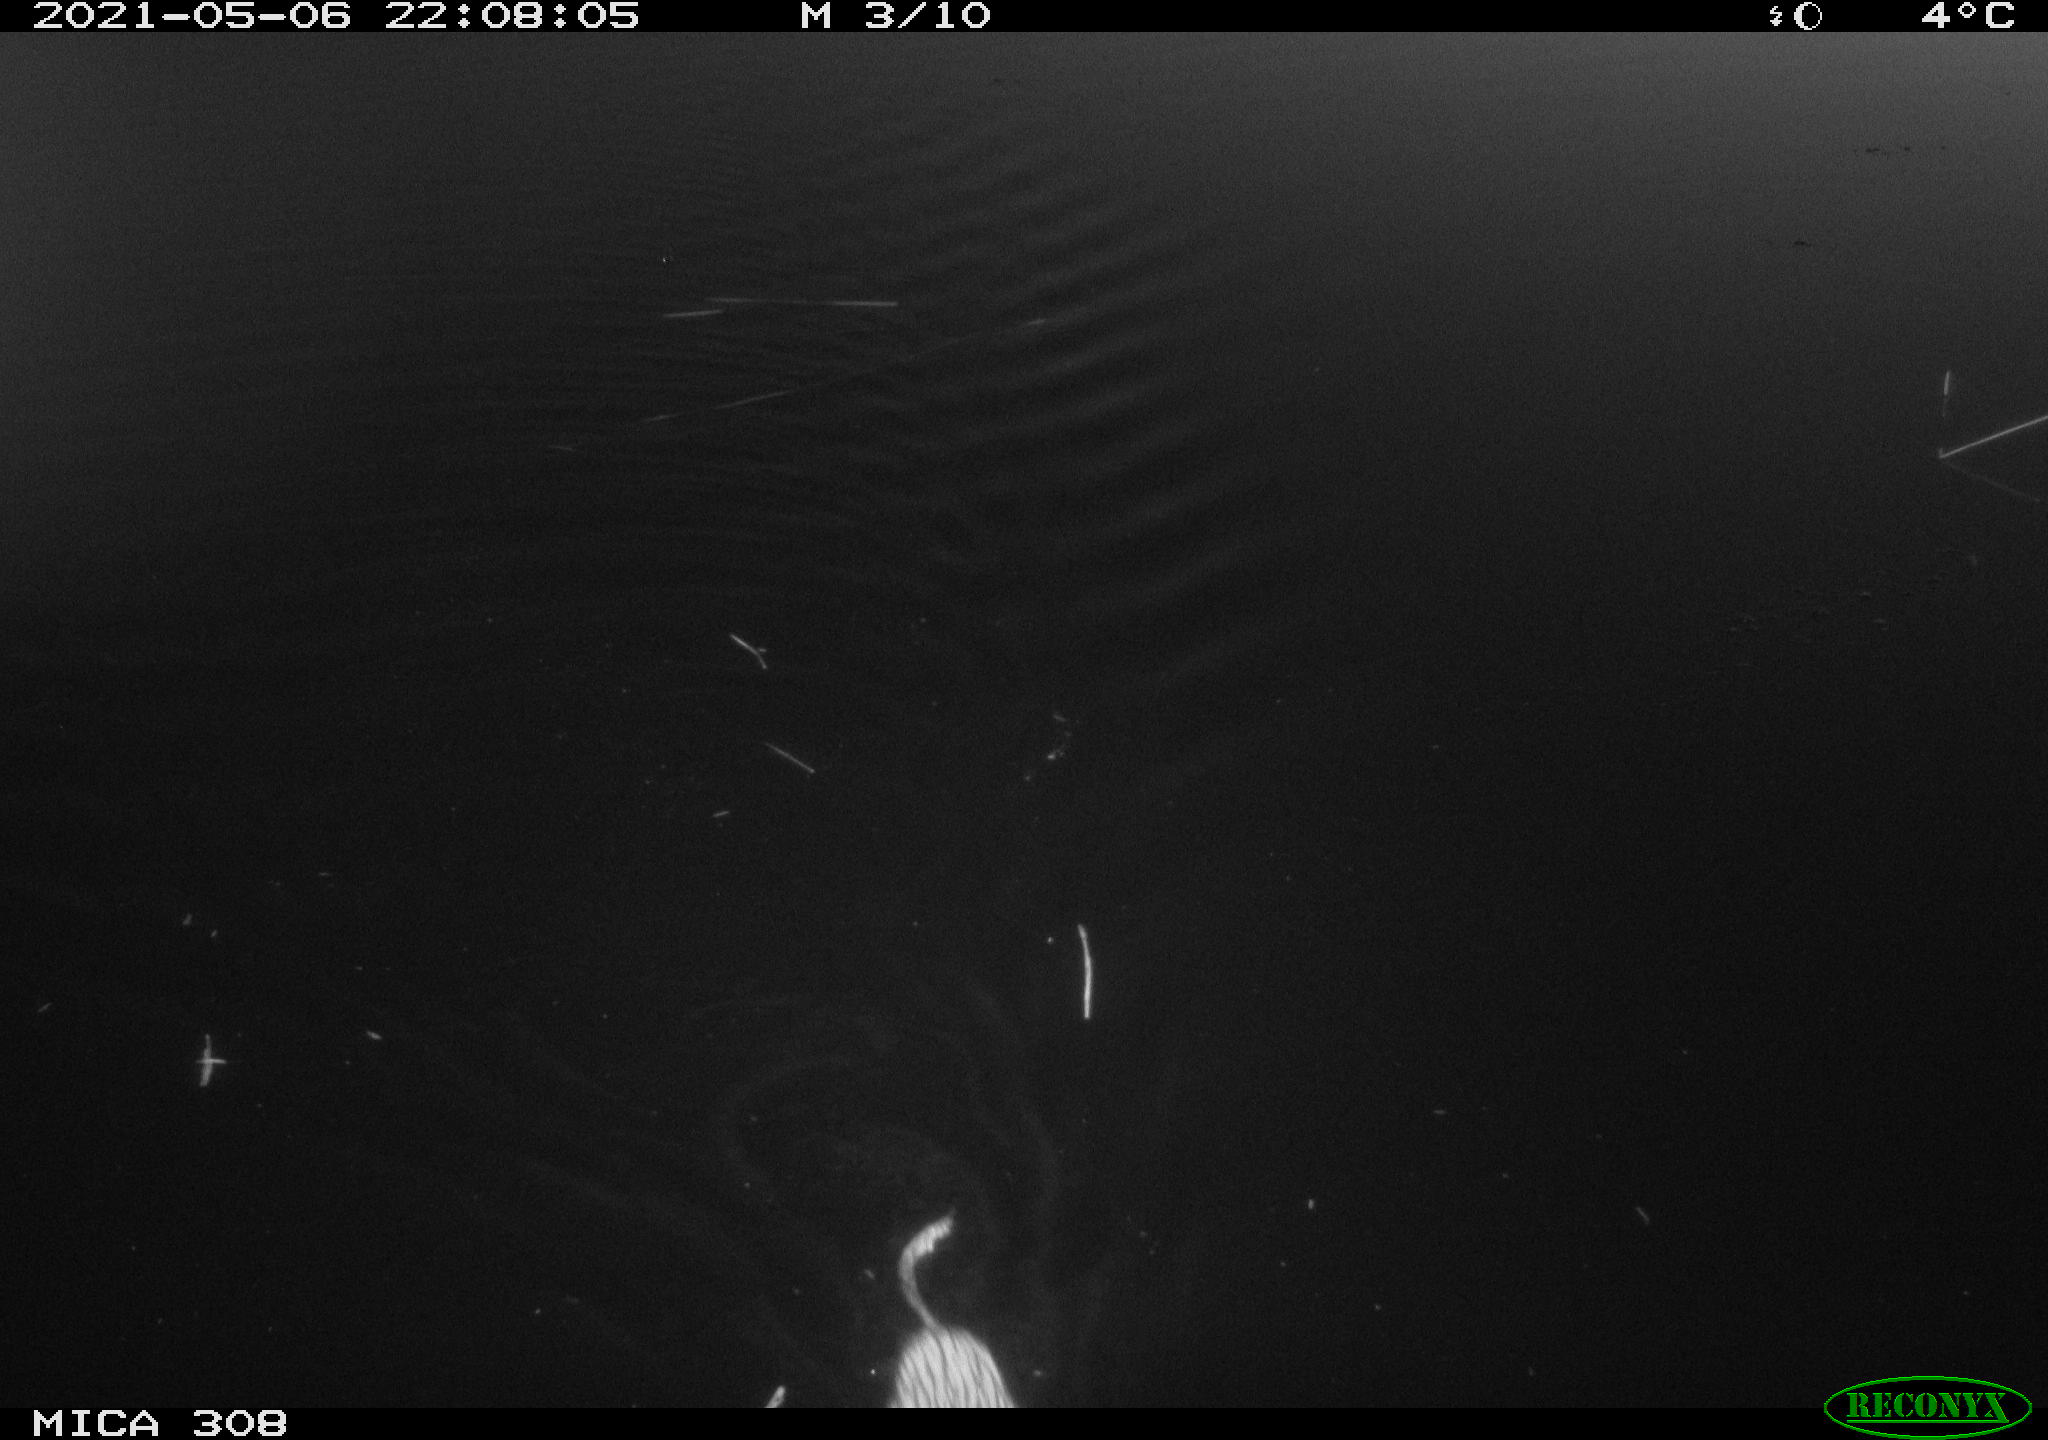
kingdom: Animalia
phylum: Chordata
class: Mammalia
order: Rodentia
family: Cricetidae
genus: Ondatra
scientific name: Ondatra zibethicus
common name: Muskrat
